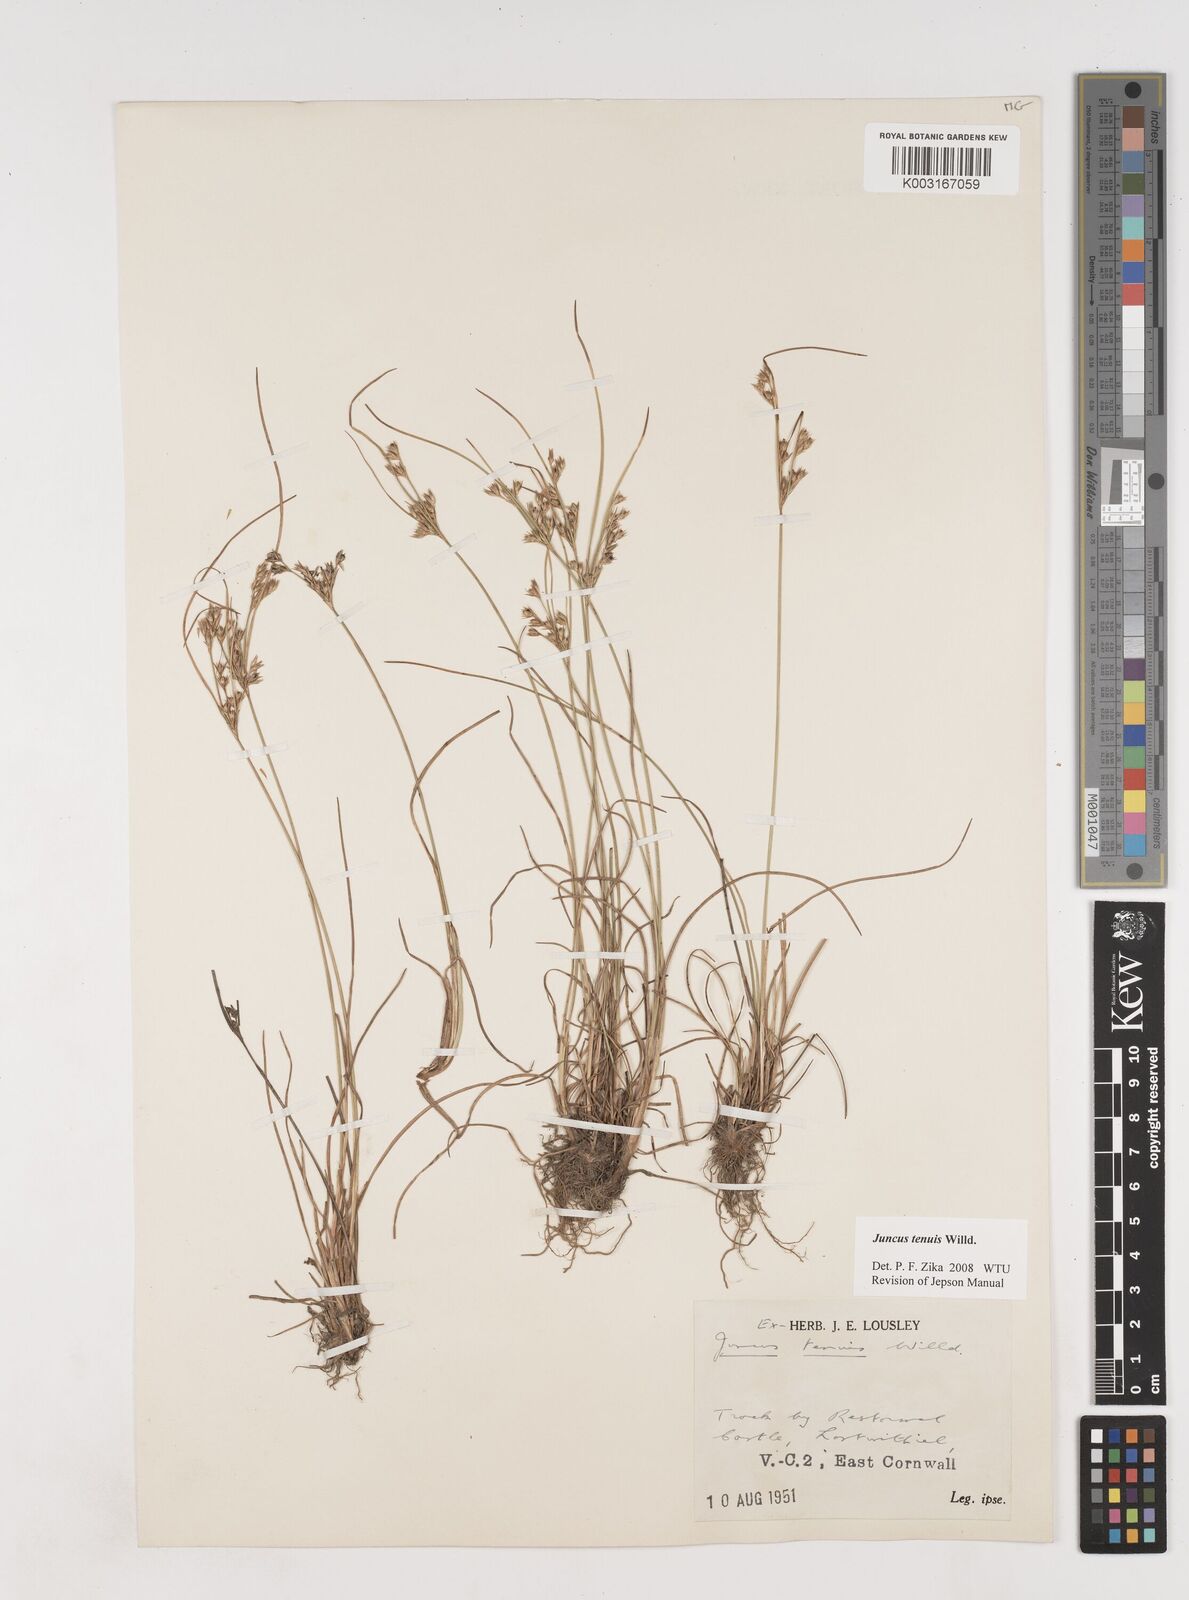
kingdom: Plantae
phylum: Tracheophyta
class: Liliopsida
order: Poales
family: Juncaceae
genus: Juncus
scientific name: Juncus tenuis
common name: Slender rush
